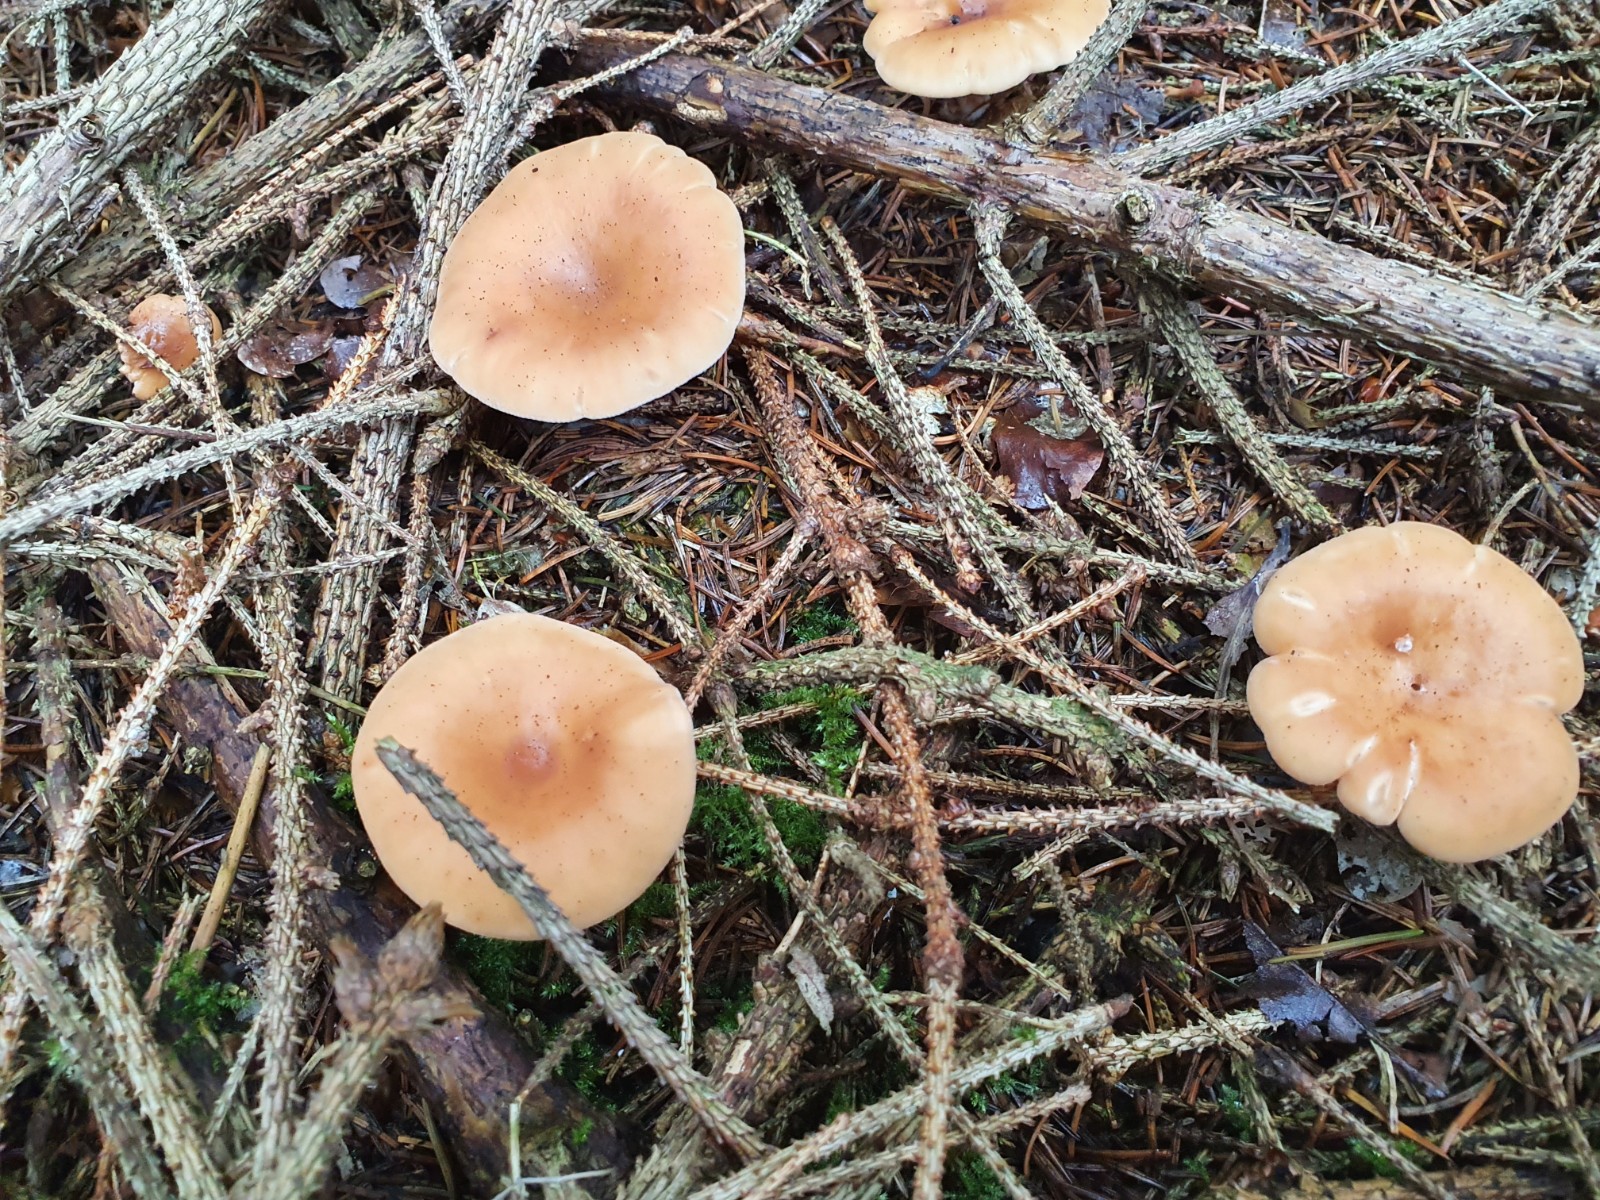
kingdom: Fungi
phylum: Basidiomycota
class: Agaricomycetes
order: Agaricales
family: Tricholomataceae
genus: Paralepista
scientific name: Paralepista flaccida
